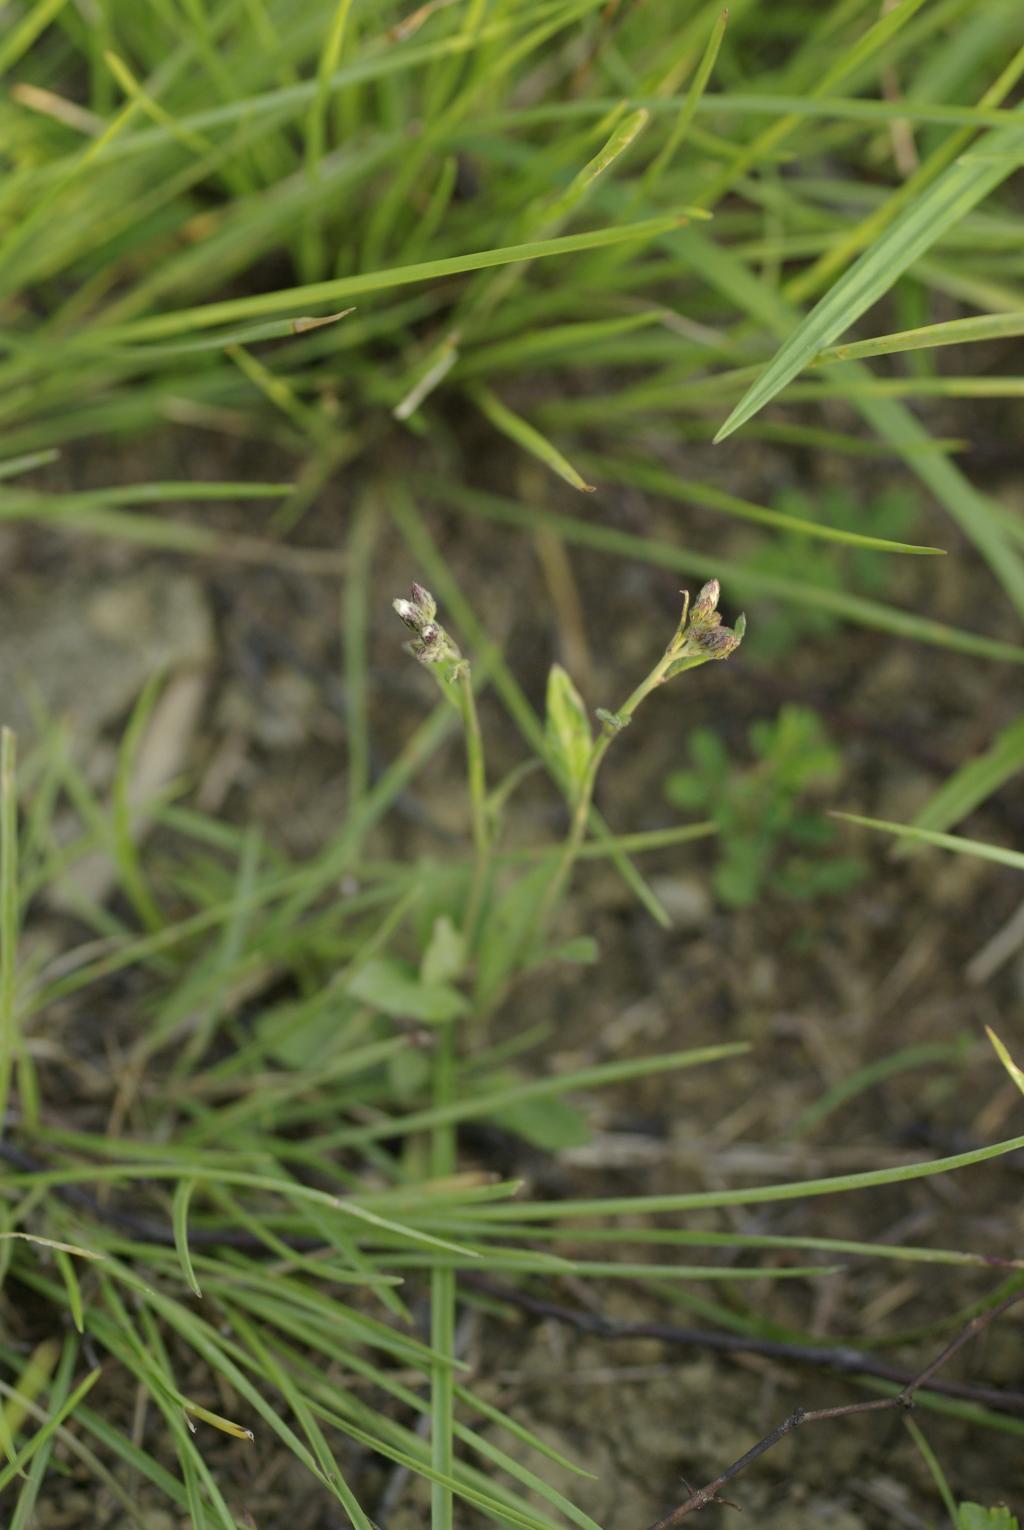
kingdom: Plantae
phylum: Tracheophyta
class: Magnoliopsida
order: Asterales
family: Asteraceae
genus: Cyanthillium
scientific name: Cyanthillium cinereum
